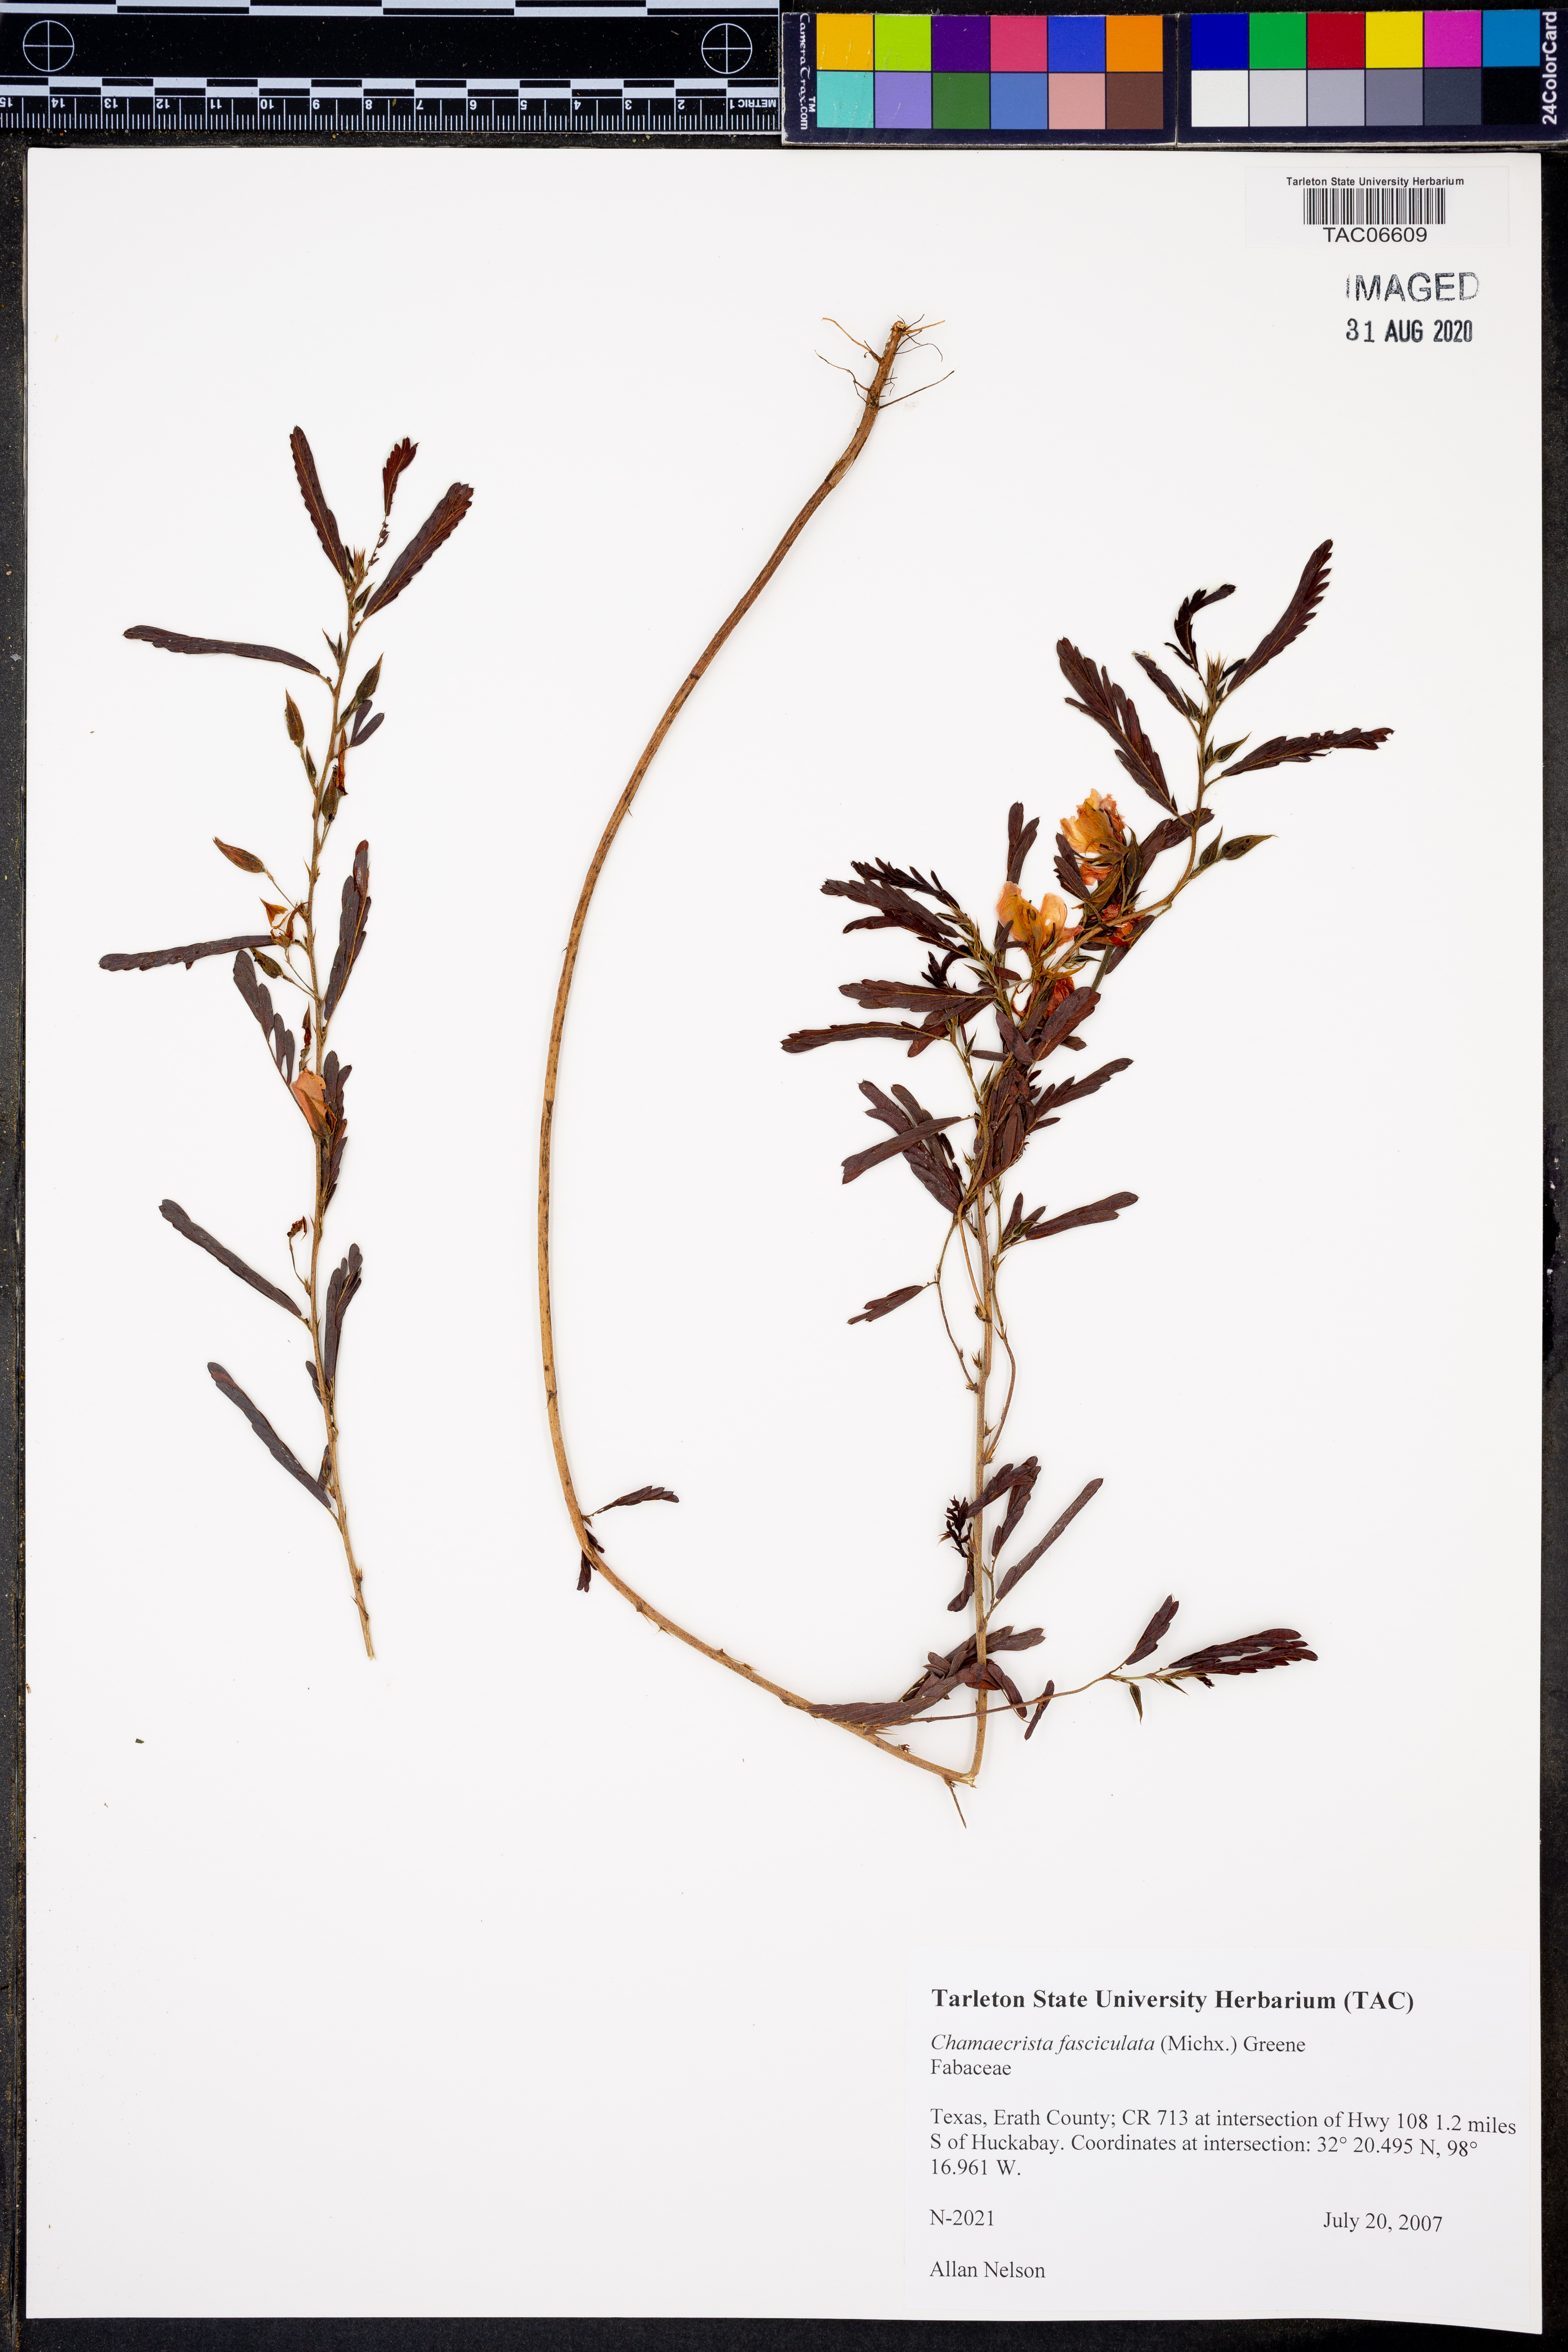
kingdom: Plantae
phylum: Tracheophyta
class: Magnoliopsida
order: Fabales
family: Fabaceae
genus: Chamaecrista
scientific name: Chamaecrista fasciculata
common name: Golden cassia
